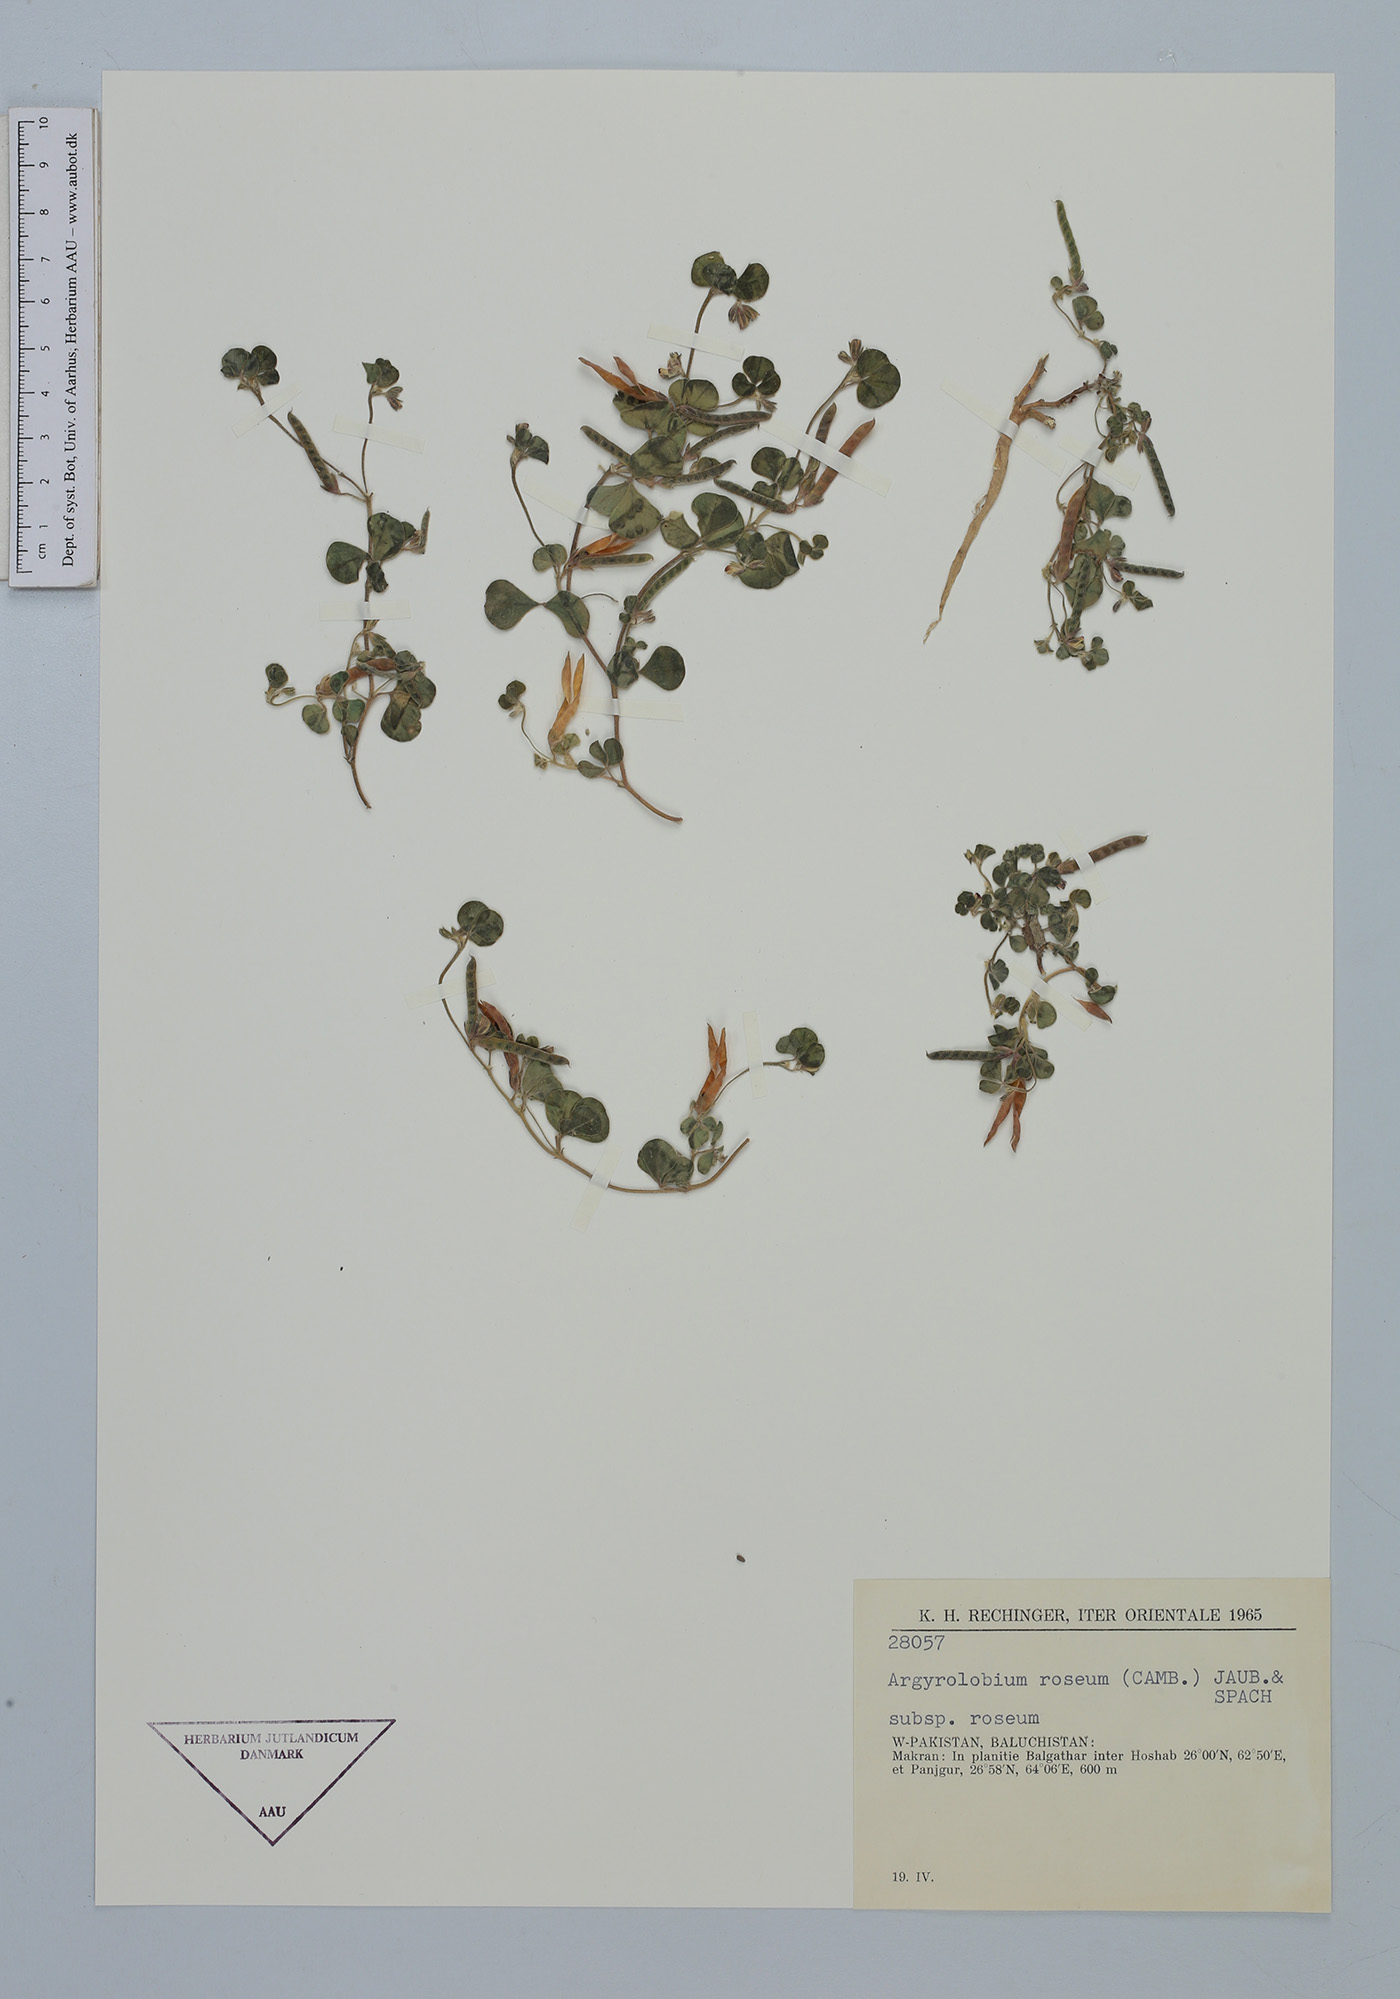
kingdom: Plantae
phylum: Tracheophyta
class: Magnoliopsida
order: Fabales
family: Fabaceae
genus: Argyrolobium
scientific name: Argyrolobium roseum
